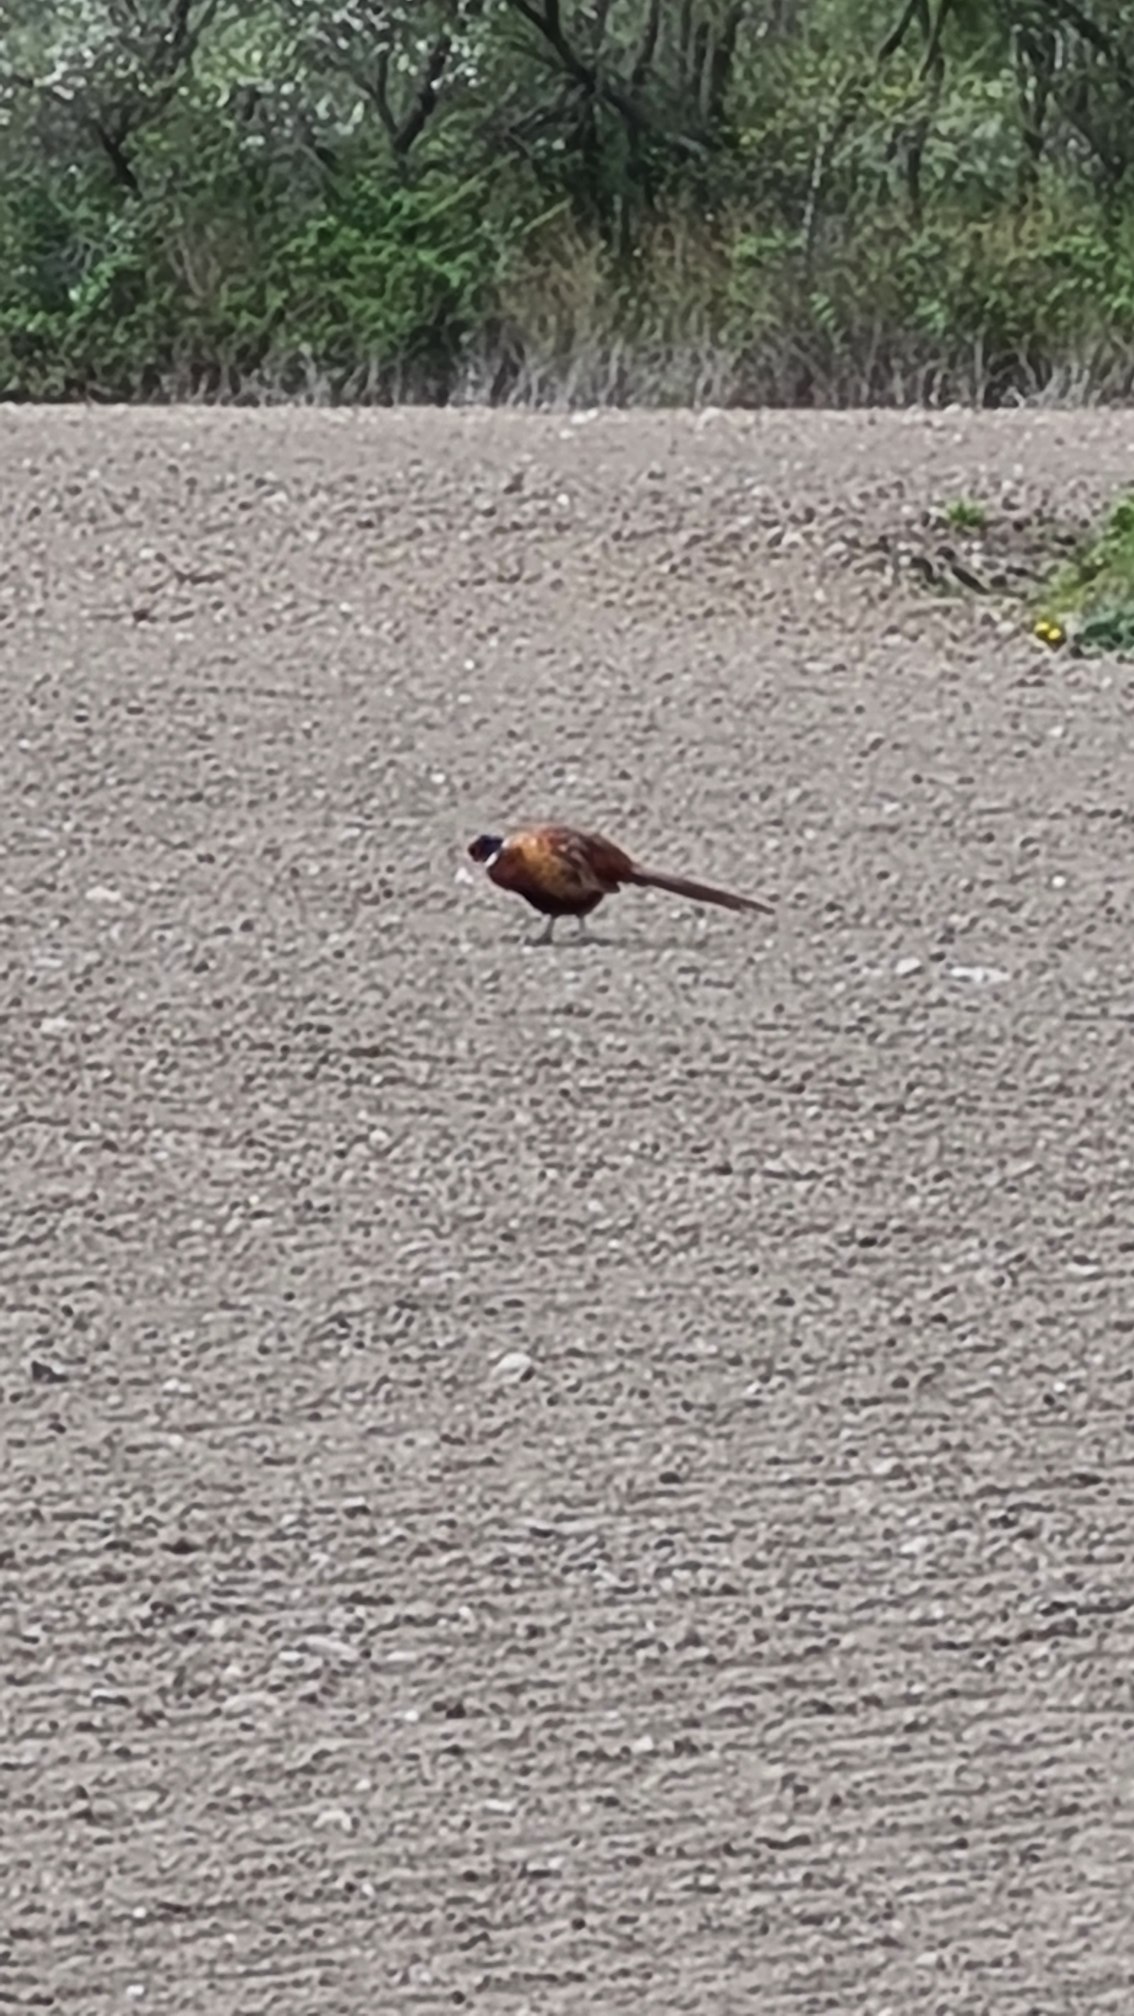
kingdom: Animalia
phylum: Chordata
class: Aves
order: Galliformes
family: Phasianidae
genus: Phasianus
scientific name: Phasianus colchicus
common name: Fasan
